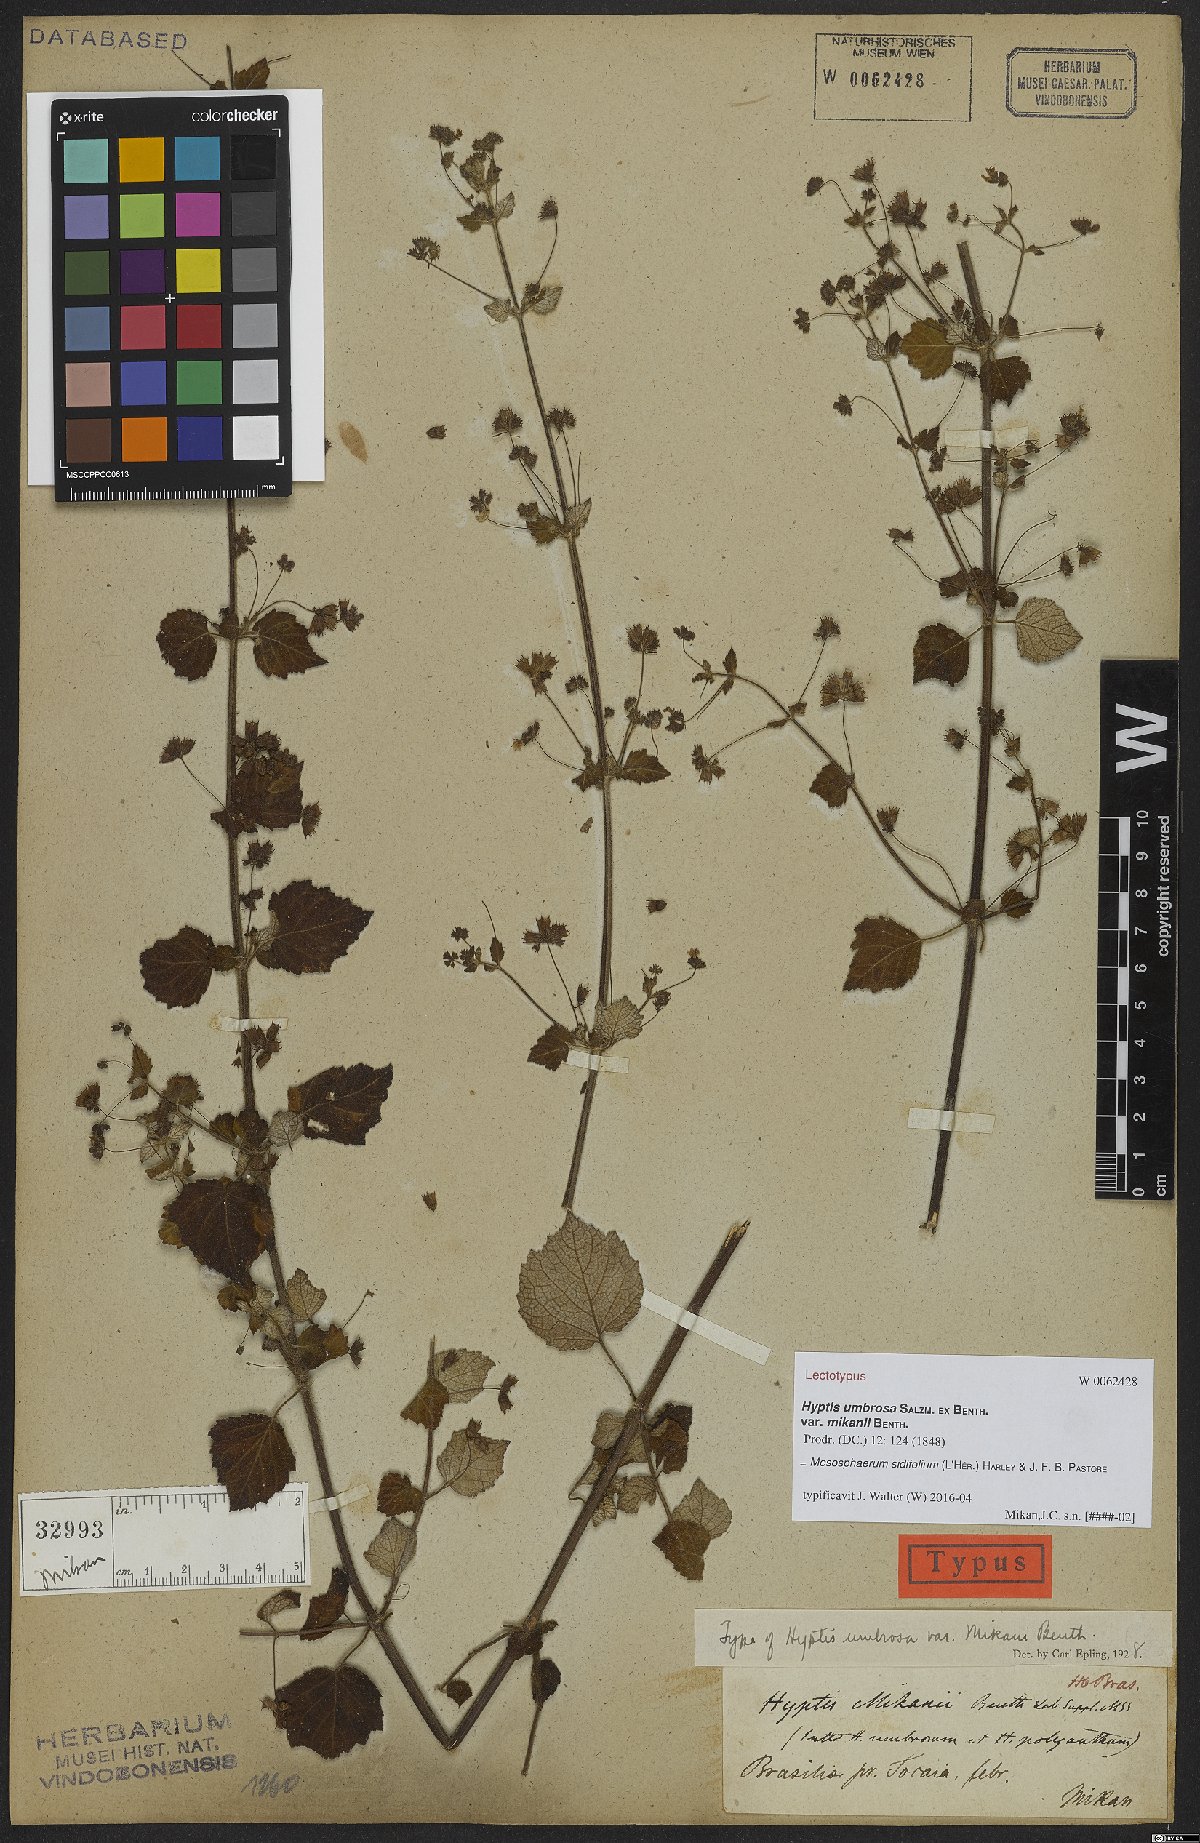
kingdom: Plantae
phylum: Tracheophyta
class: Magnoliopsida
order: Lamiales
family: Lamiaceae
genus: Mesosphaerum
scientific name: Mesosphaerum sidifolium
